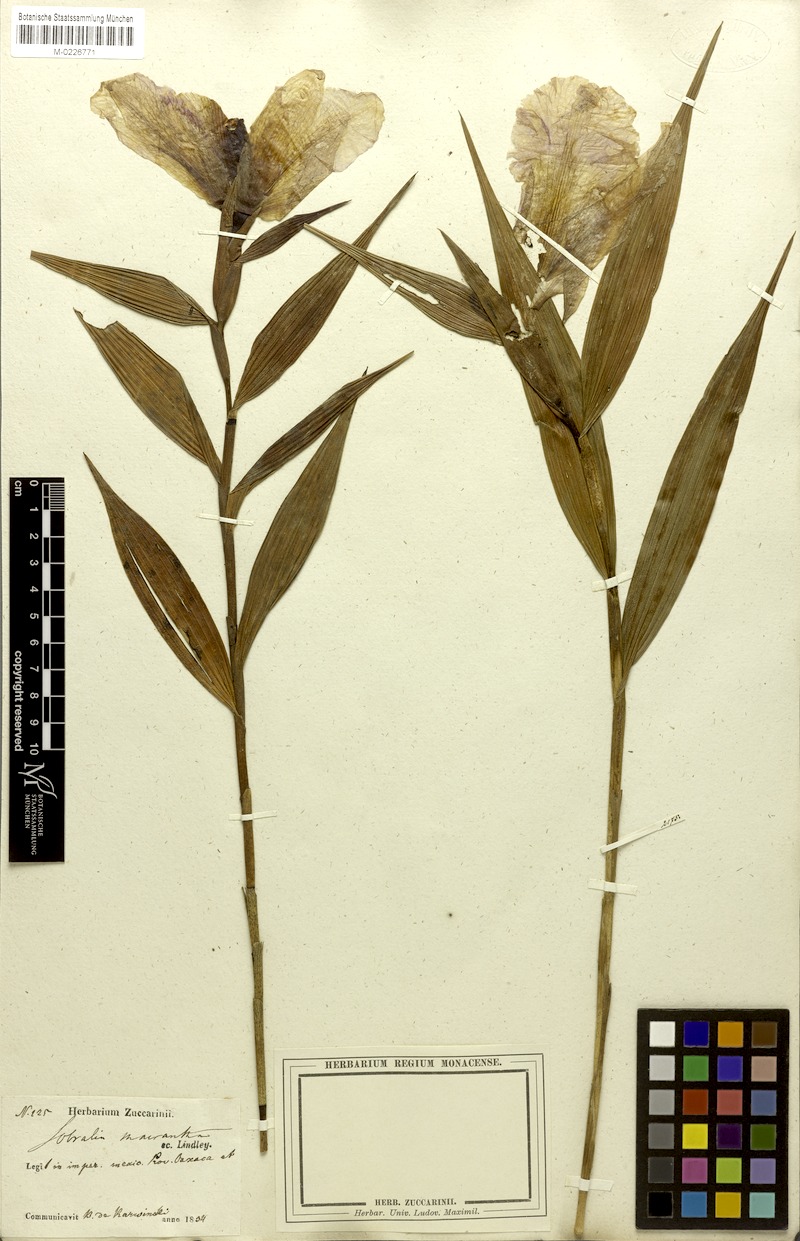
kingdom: Plantae
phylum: Tracheophyta
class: Liliopsida
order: Asparagales
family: Orchidaceae
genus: Sobralia
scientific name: Sobralia macrantha
